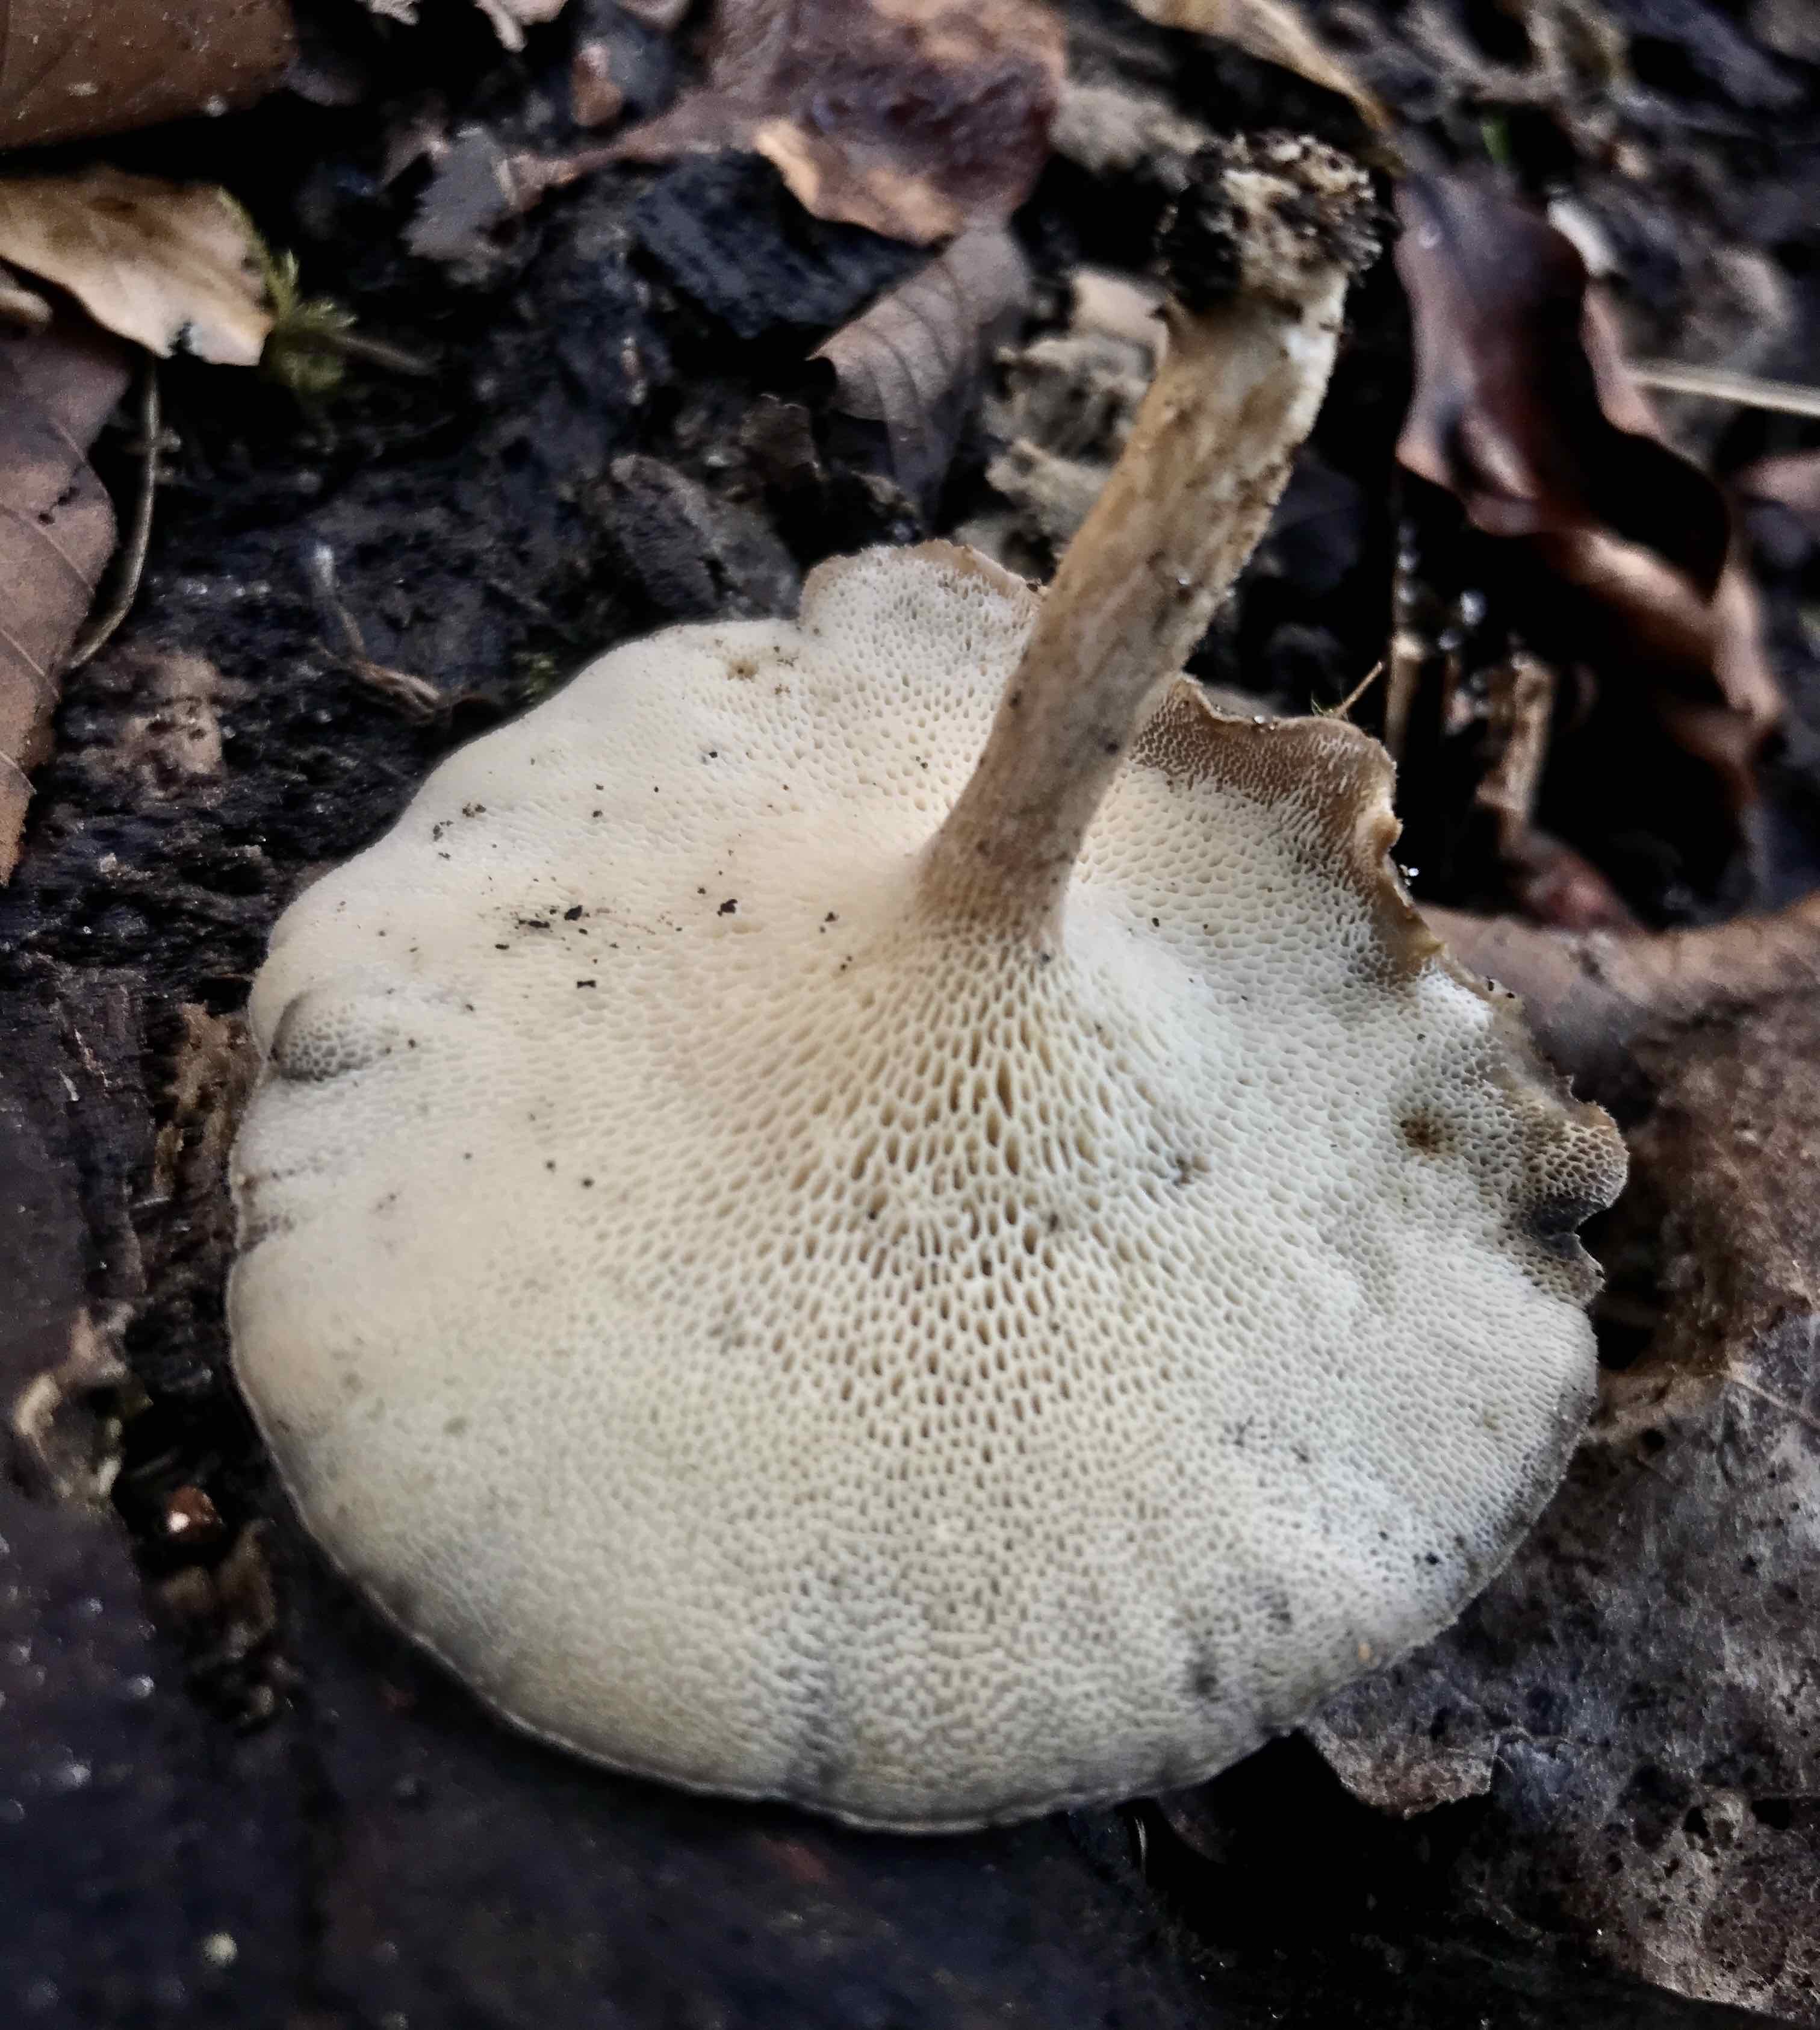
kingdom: Fungi
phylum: Basidiomycota
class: Agaricomycetes
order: Polyporales
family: Polyporaceae
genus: Lentinus
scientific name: Lentinus brumalis
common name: vinter-stilkporesvamp
